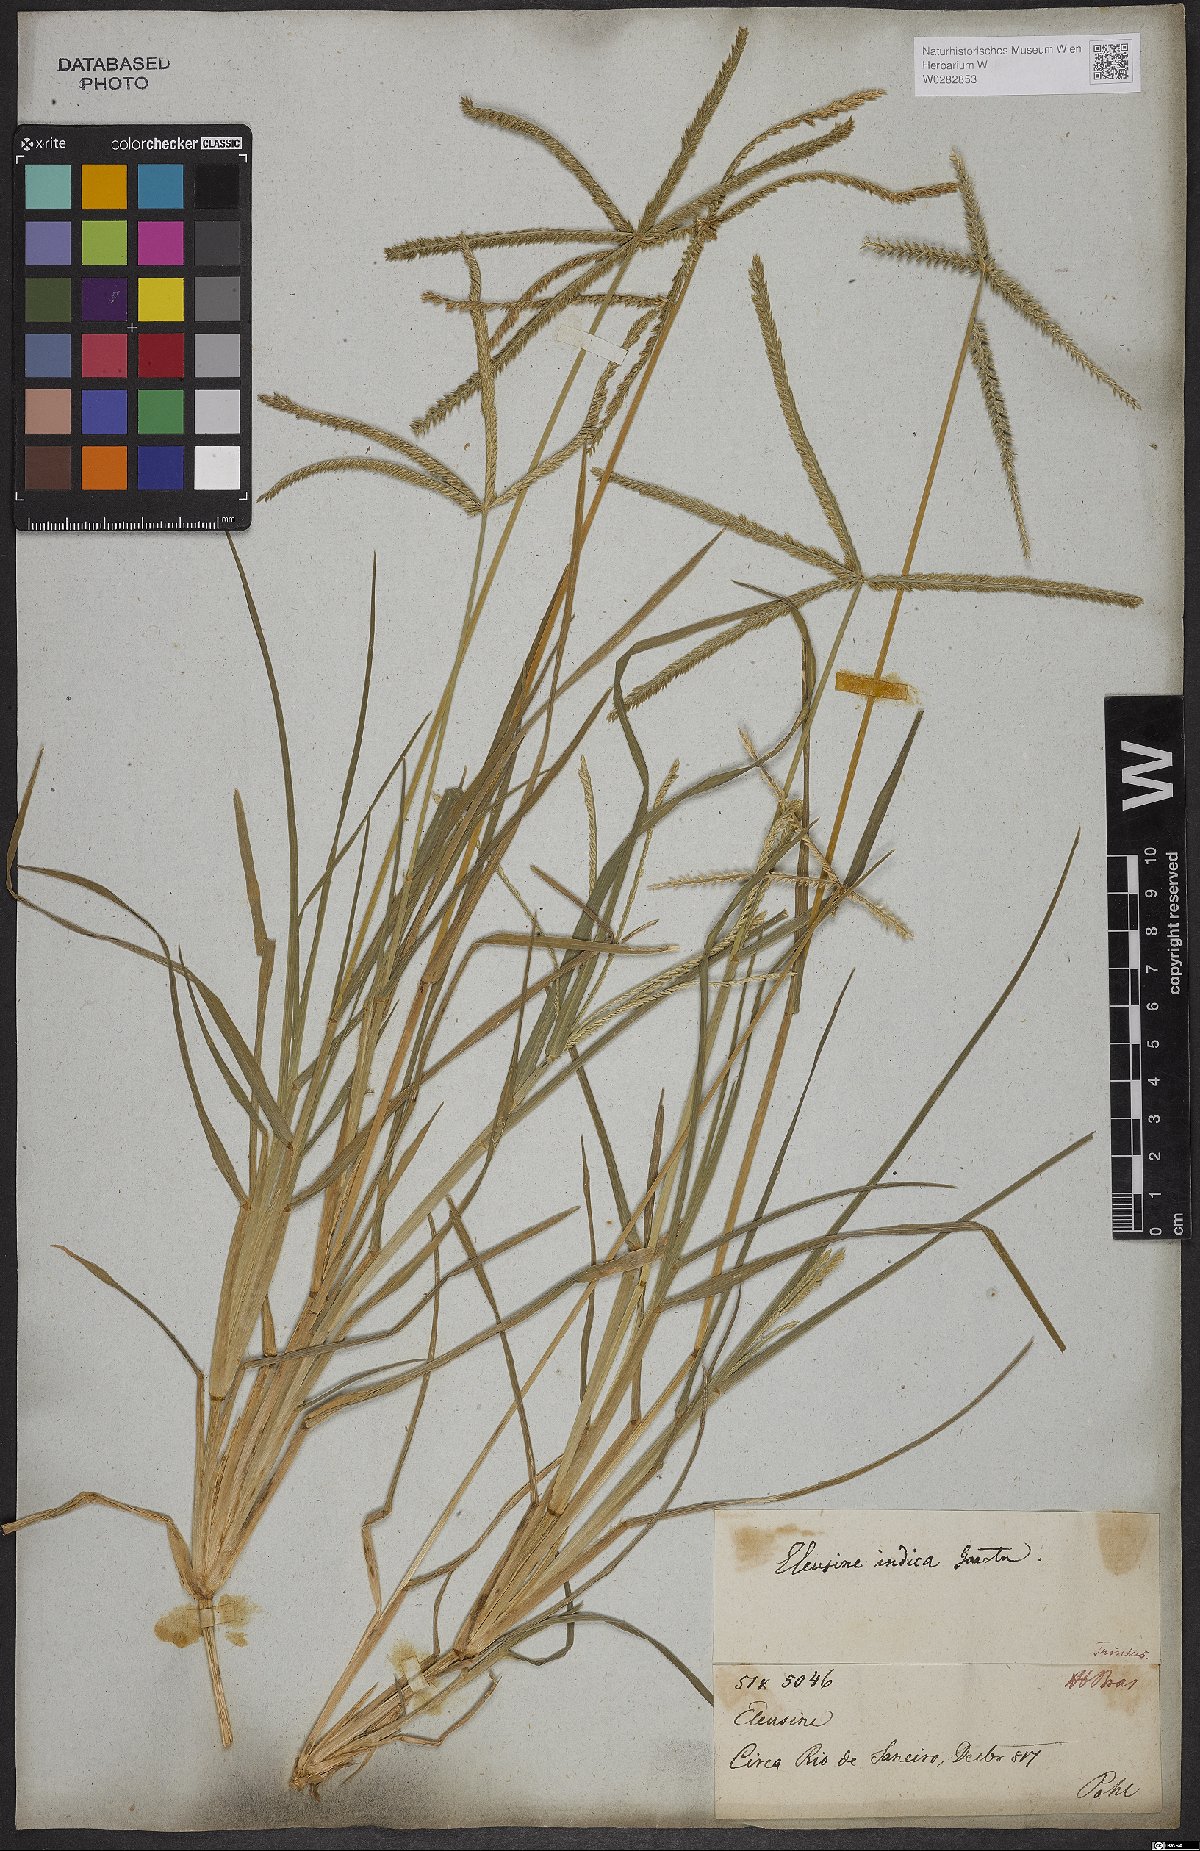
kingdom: Plantae
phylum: Tracheophyta
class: Liliopsida
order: Poales
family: Poaceae
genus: Eleusine
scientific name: Eleusine indica
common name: Yard-grass
